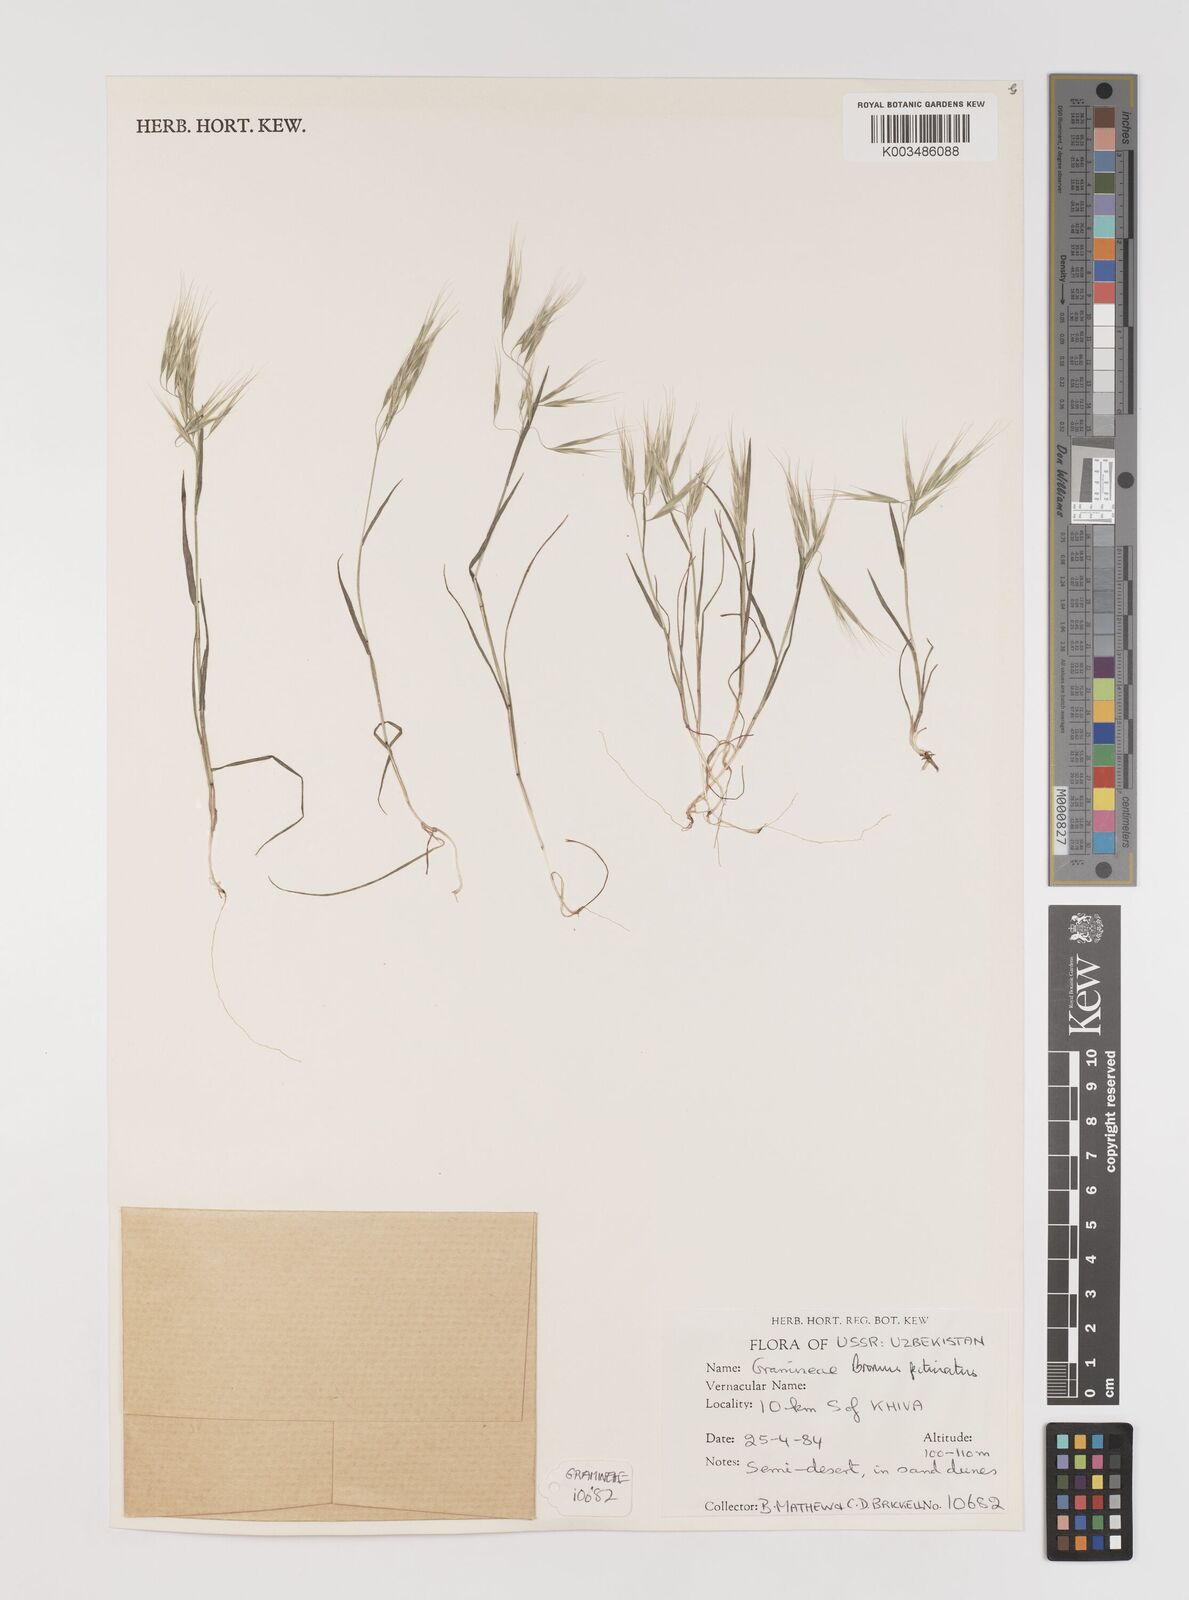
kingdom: Plantae
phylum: Tracheophyta
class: Liliopsida
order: Poales
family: Poaceae
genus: Bromus
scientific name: Bromus pectinatus
